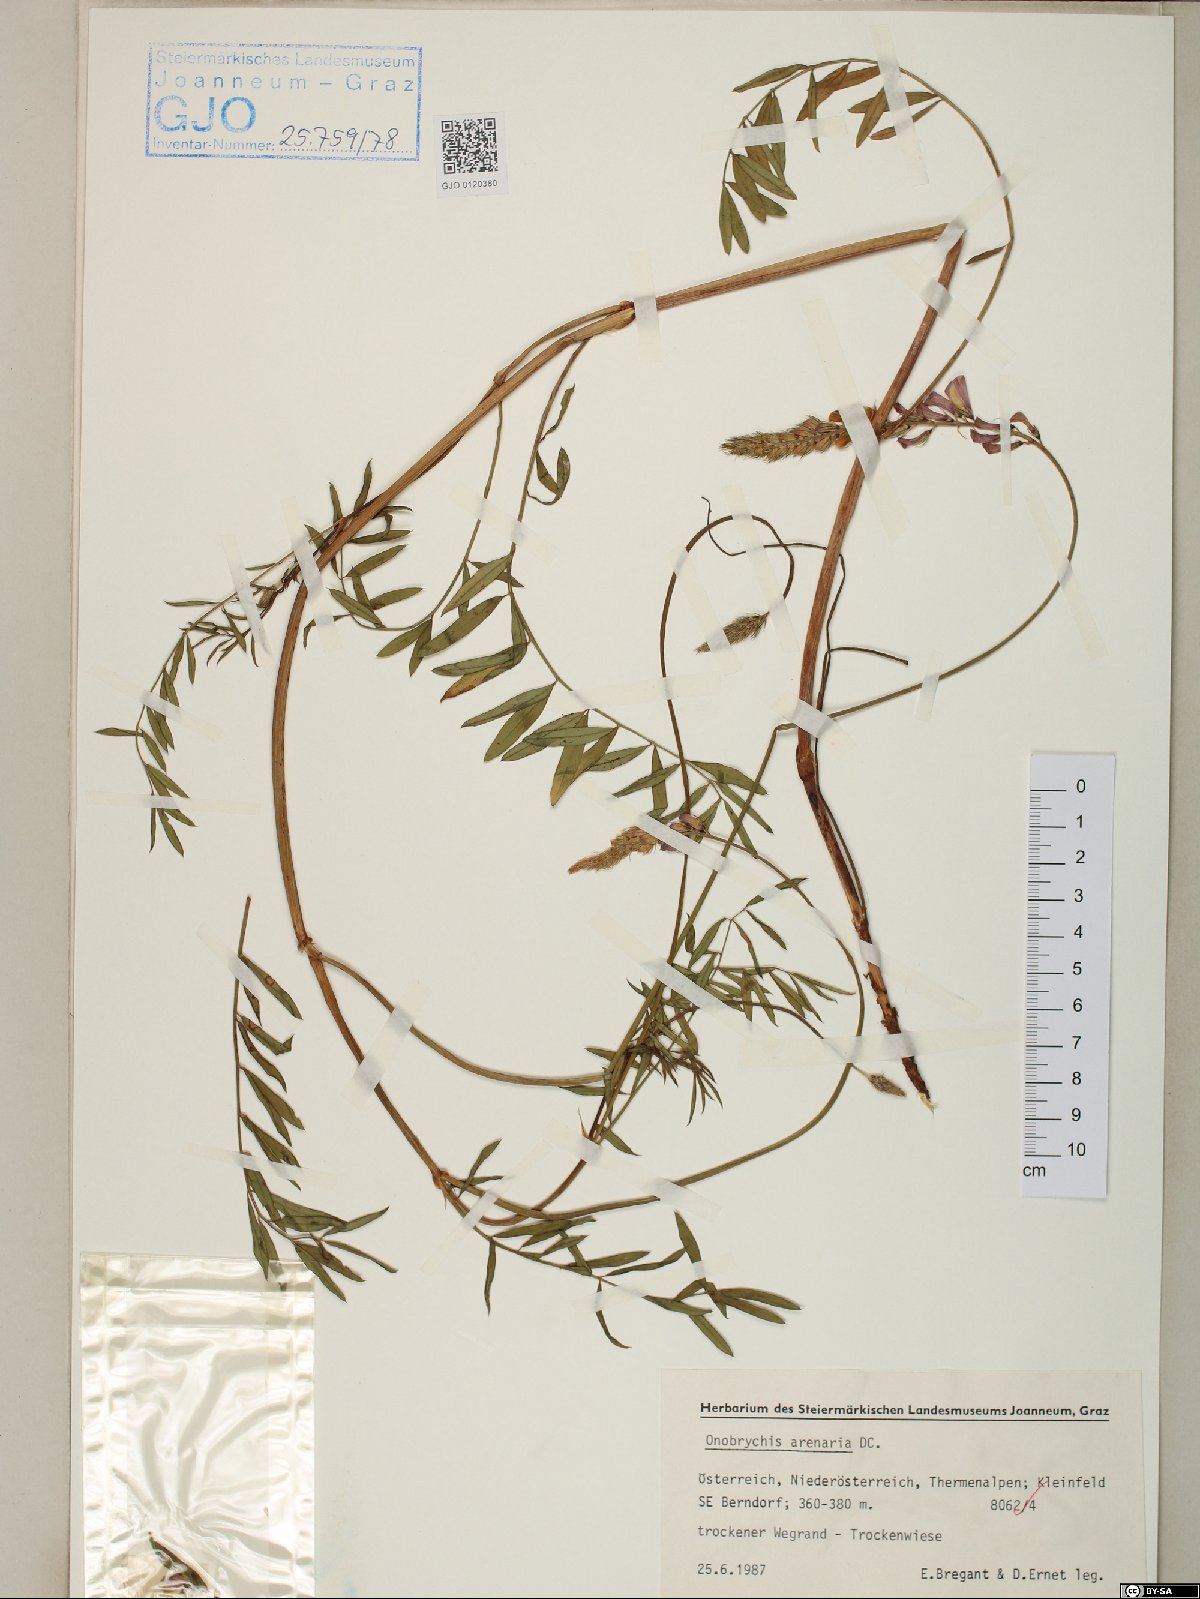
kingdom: Plantae
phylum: Tracheophyta
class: Magnoliopsida
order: Fabales
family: Fabaceae
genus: Onobrychis
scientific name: Onobrychis arenaria
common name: Sand esparcet
